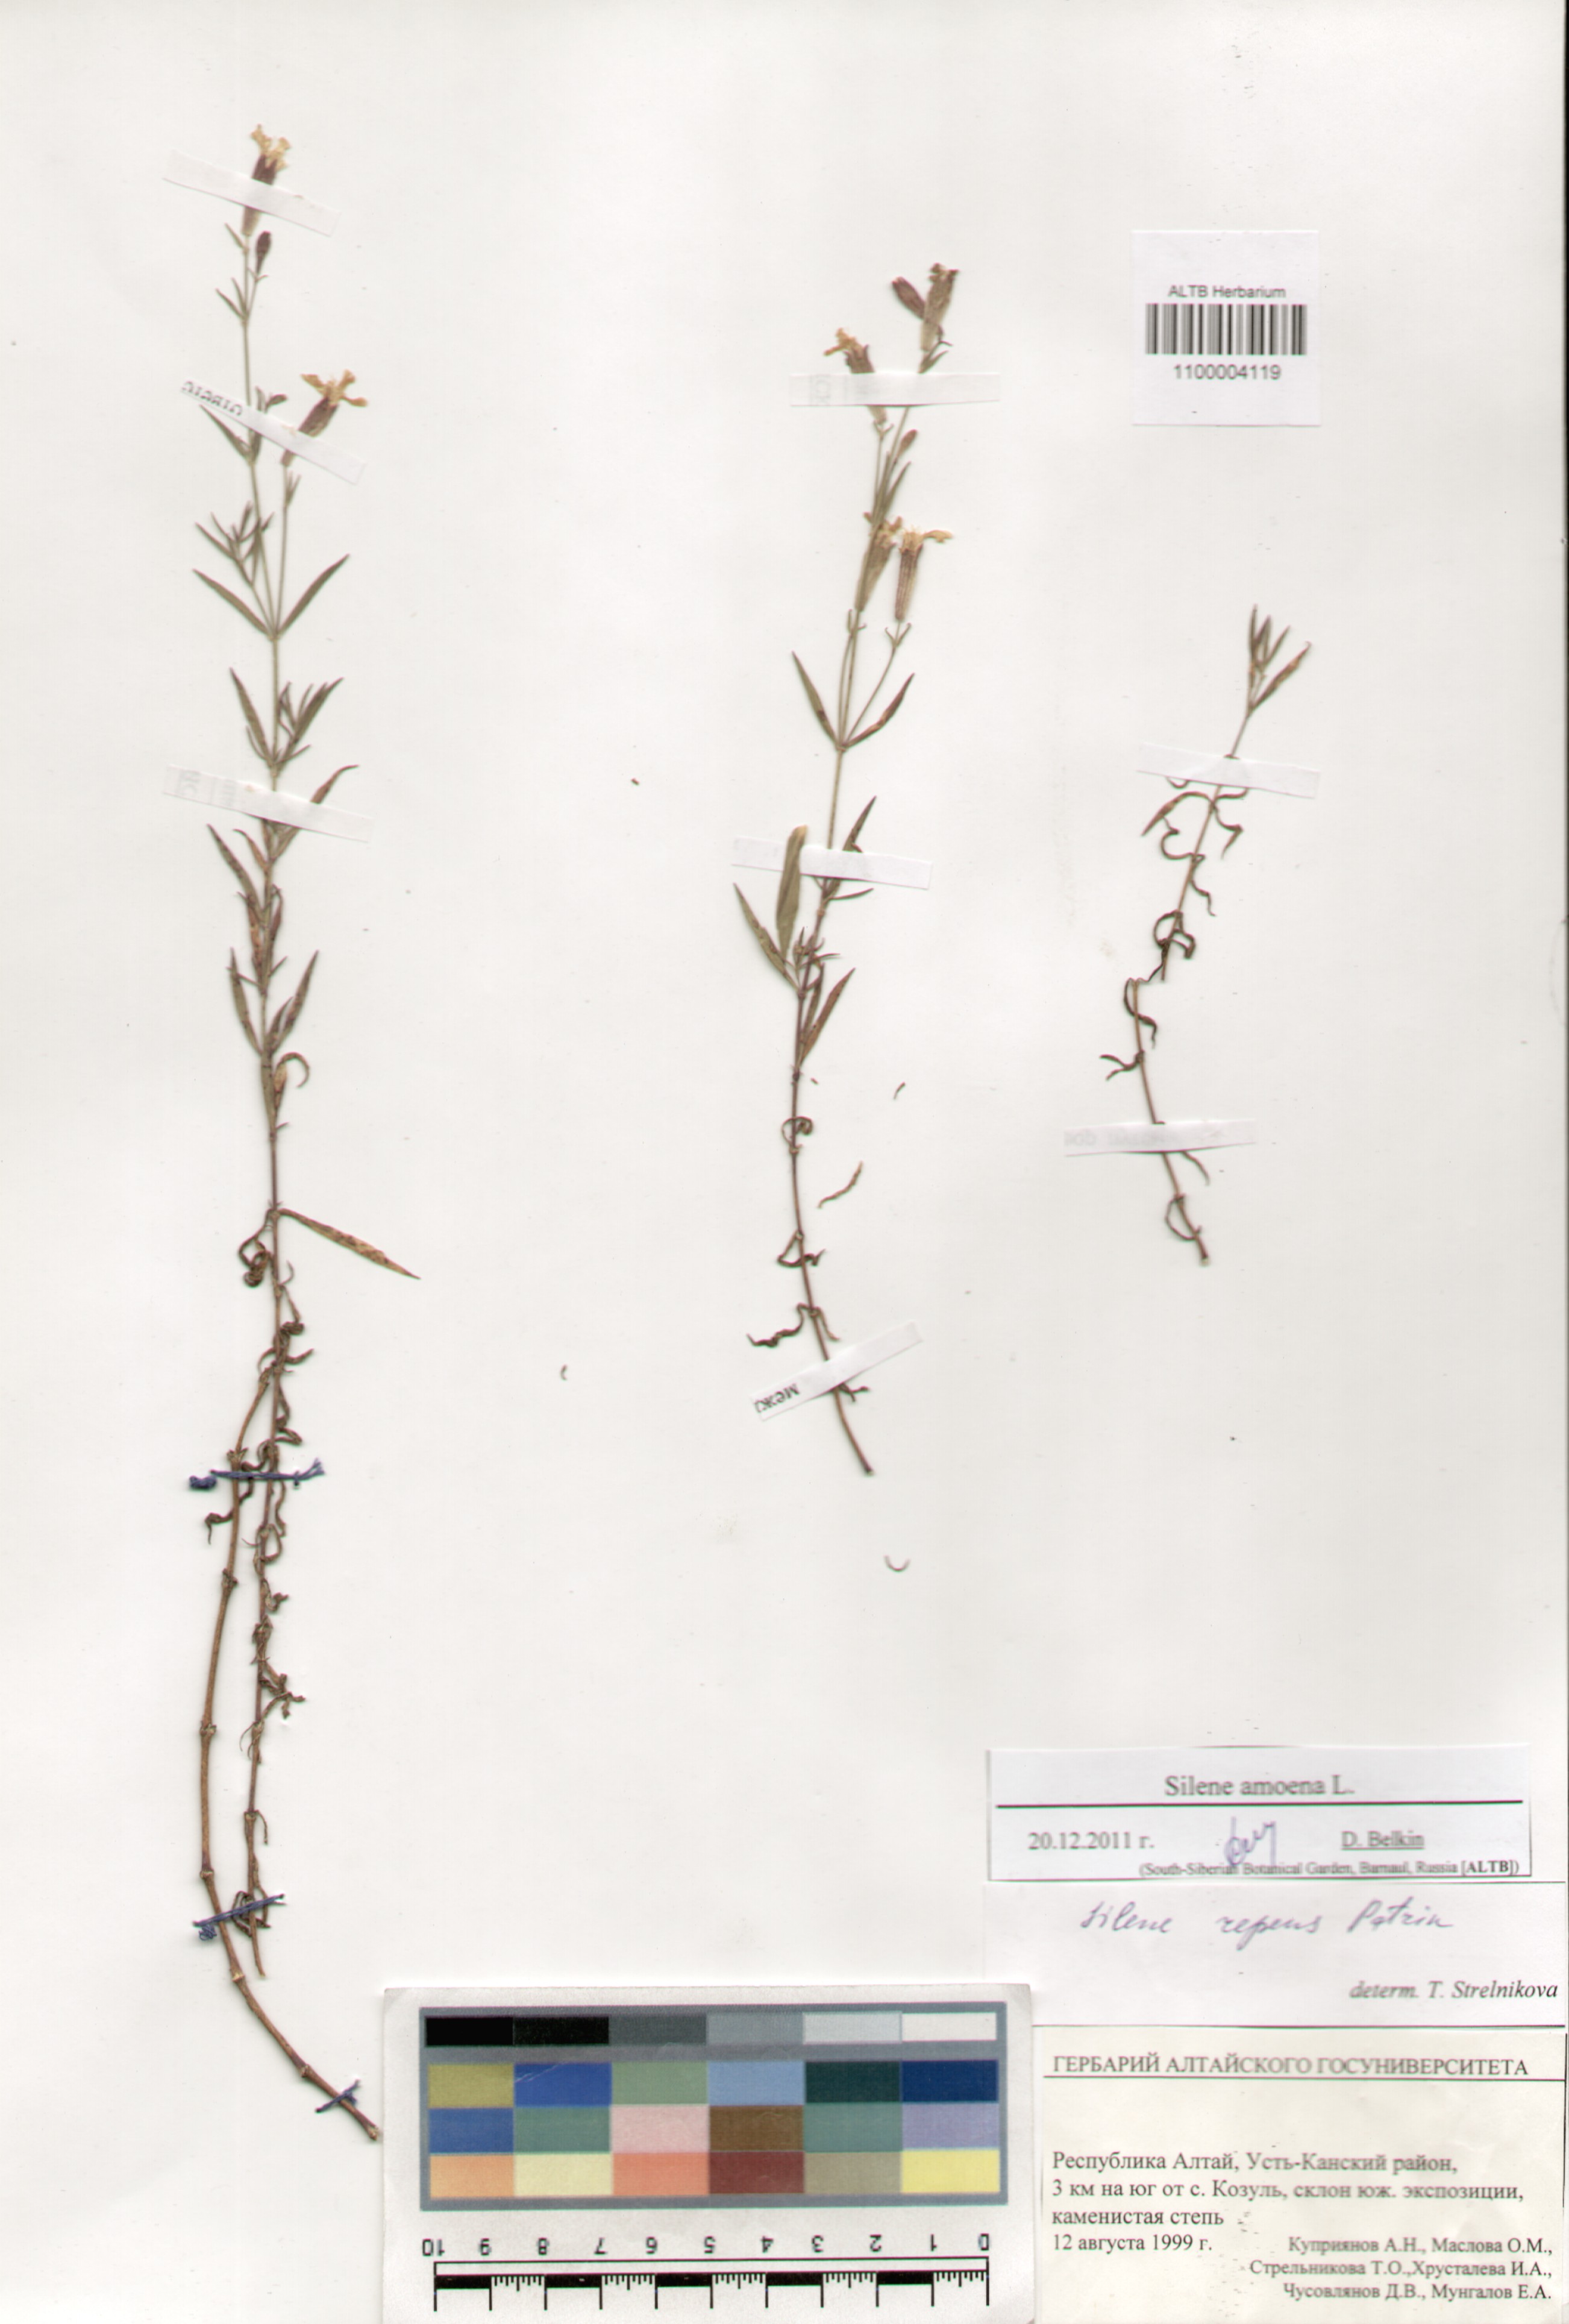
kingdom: Plantae
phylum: Tracheophyta
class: Magnoliopsida
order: Caryophyllales
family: Caryophyllaceae
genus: Silene
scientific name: Silene amoena
